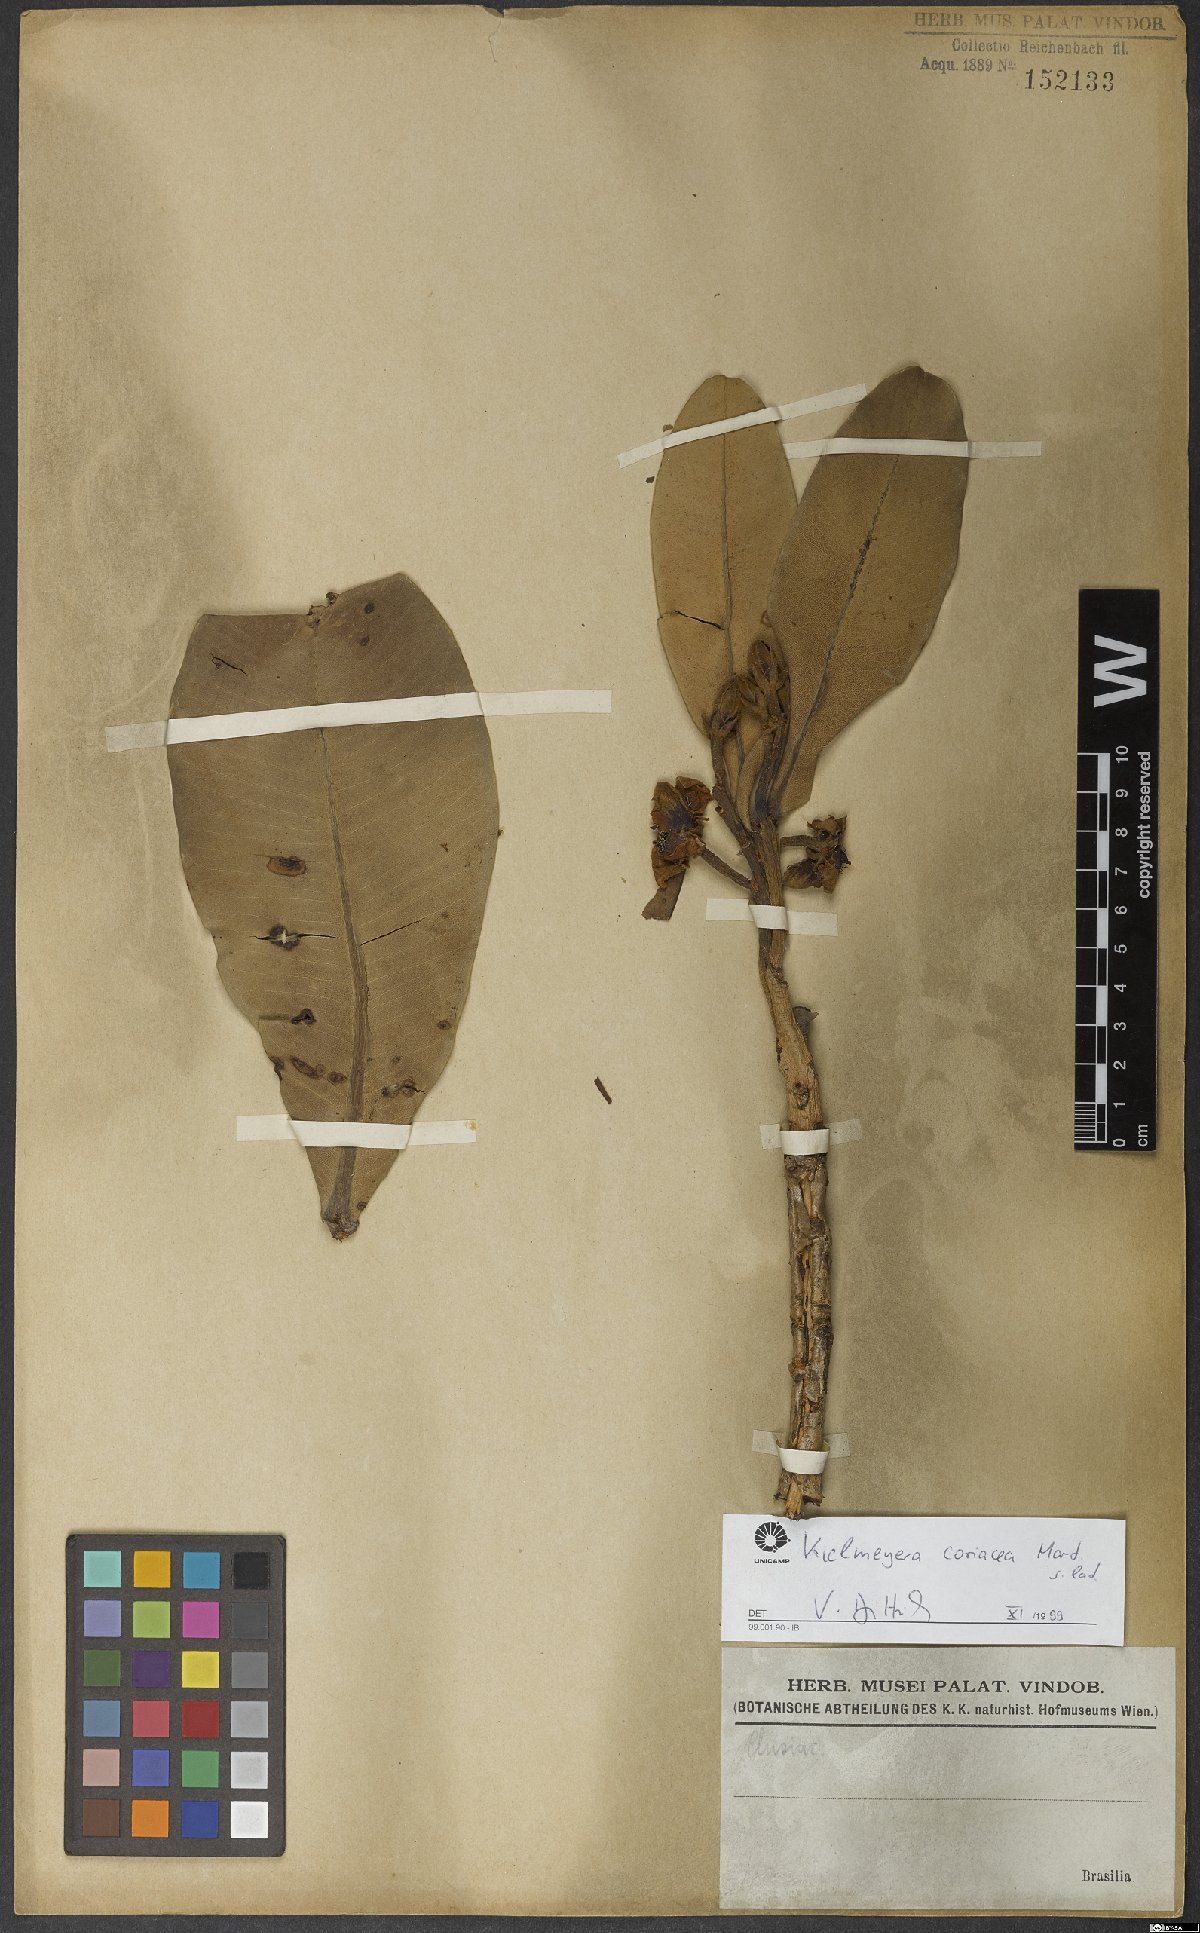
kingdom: Plantae
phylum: Tracheophyta
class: Magnoliopsida
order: Malpighiales
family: Calophyllaceae
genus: Kielmeyera
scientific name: Kielmeyera coriacea
